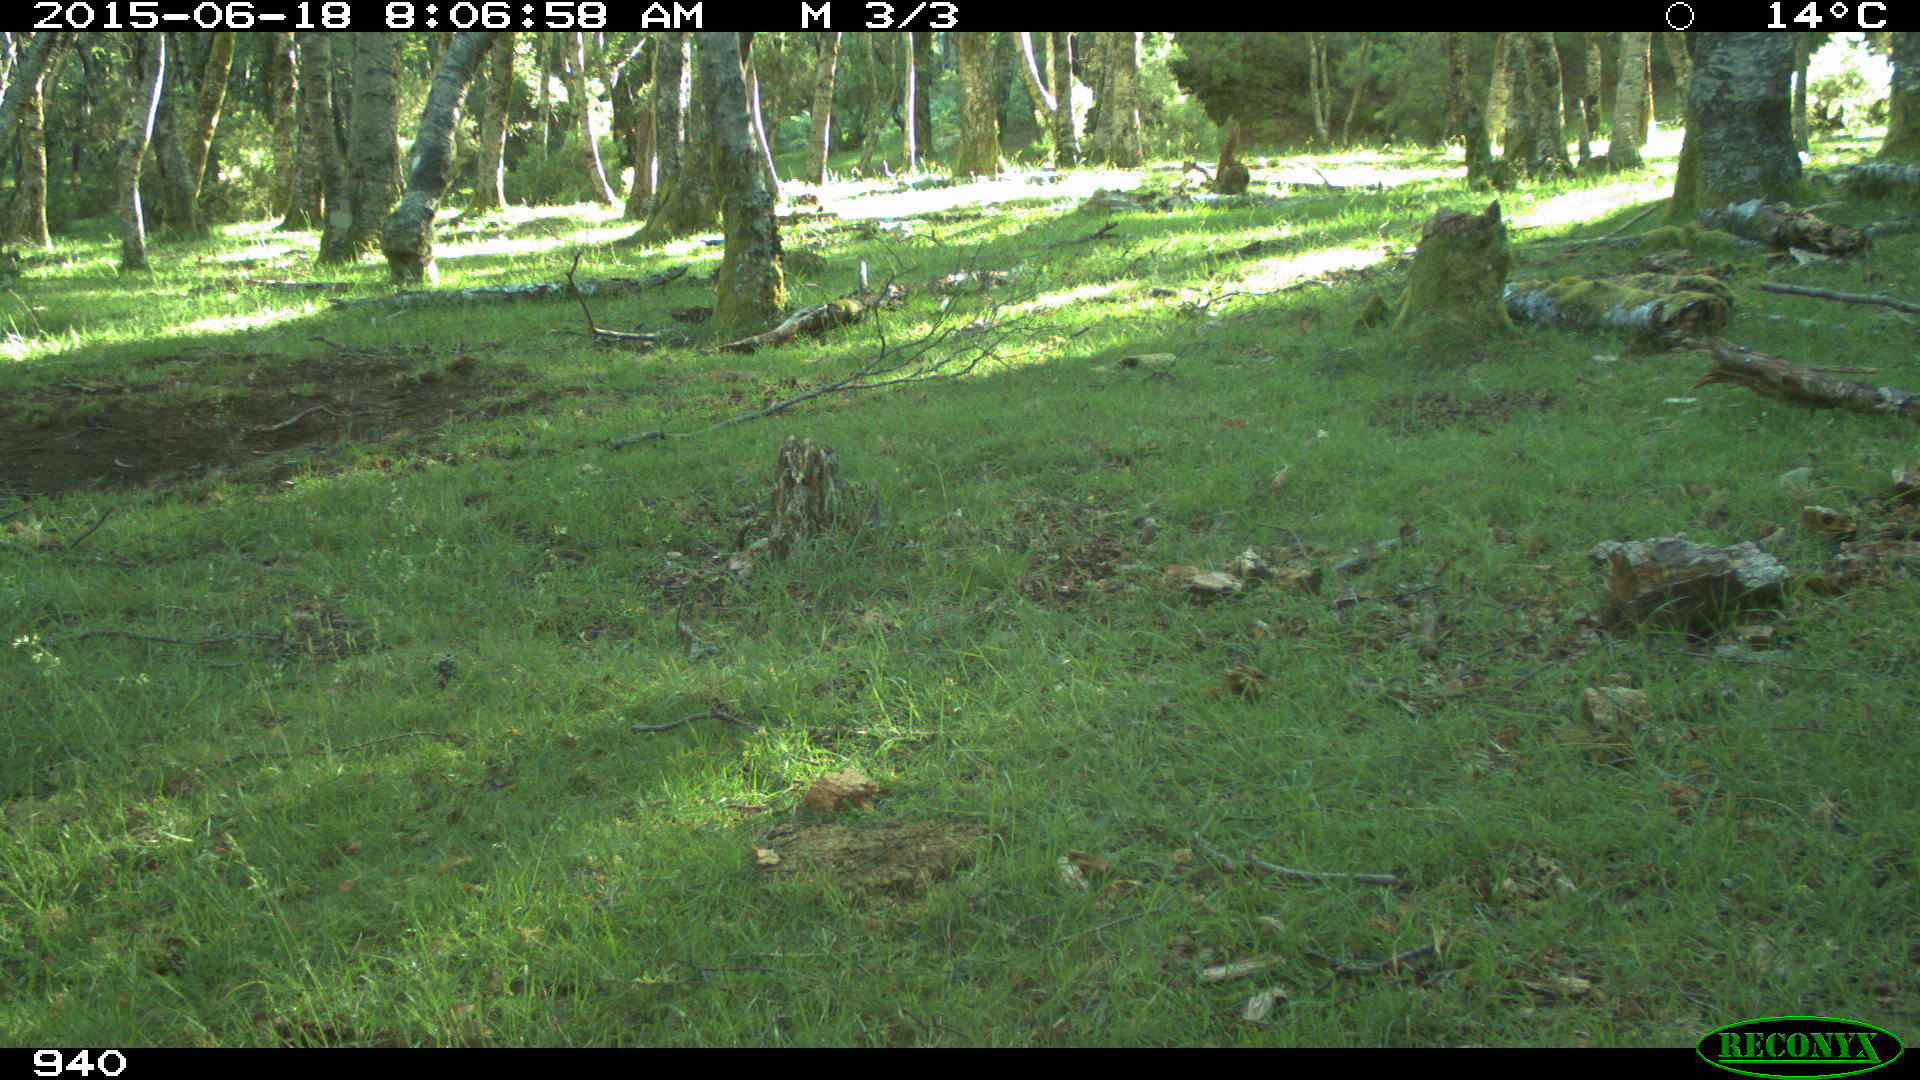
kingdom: Animalia
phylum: Chordata
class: Mammalia
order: Perissodactyla
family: Equidae
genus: Equus
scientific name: Equus caballus
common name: Horse
